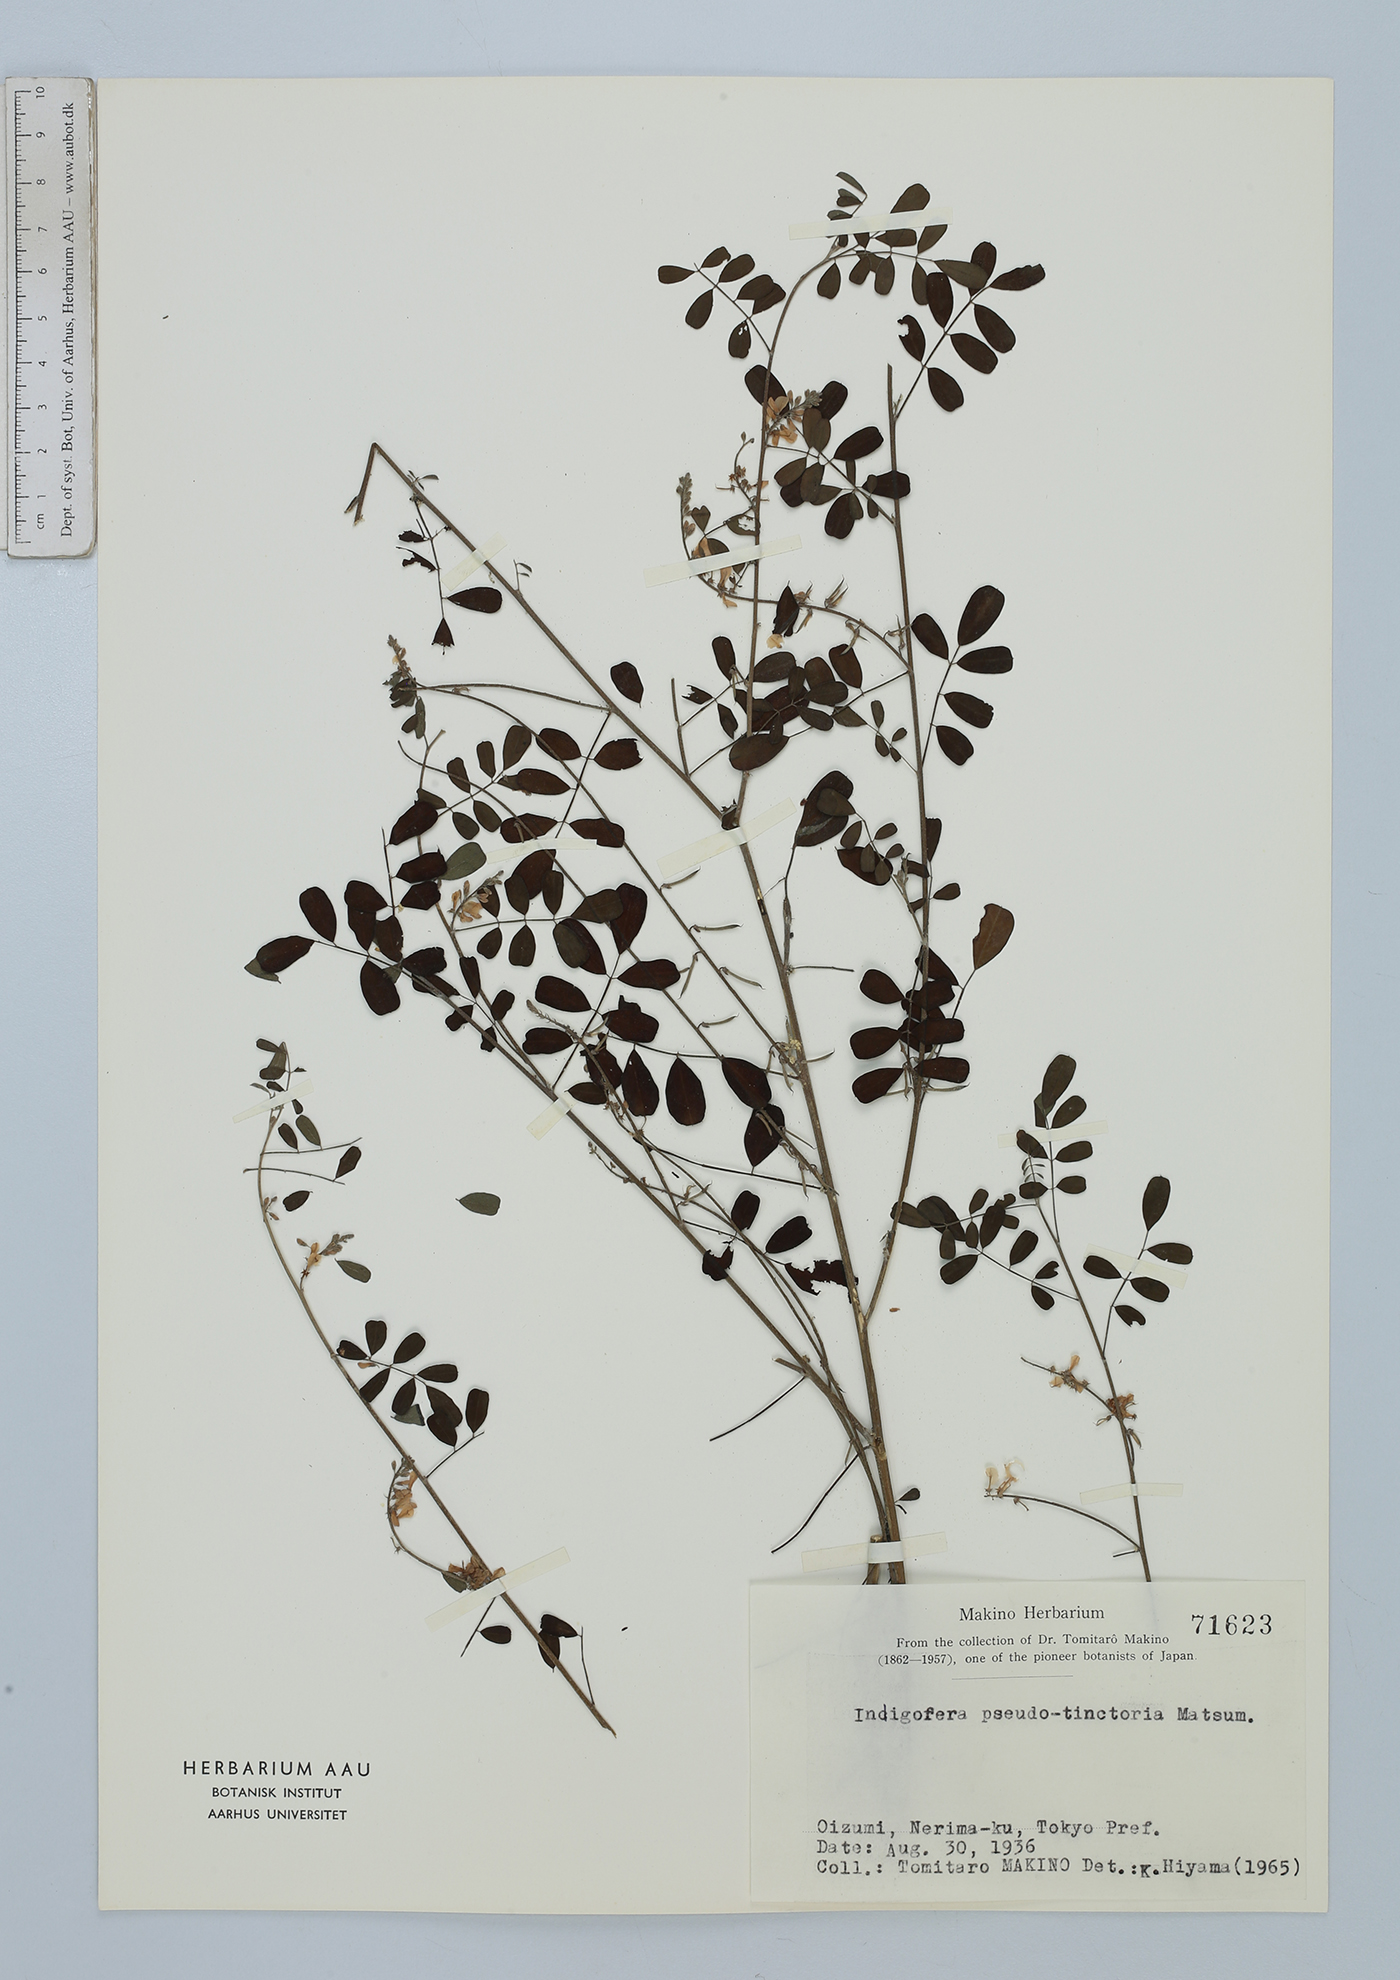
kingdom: Plantae
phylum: Tracheophyta
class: Magnoliopsida
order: Fabales
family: Fabaceae
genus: Indigofera
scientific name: Indigofera bungeana
